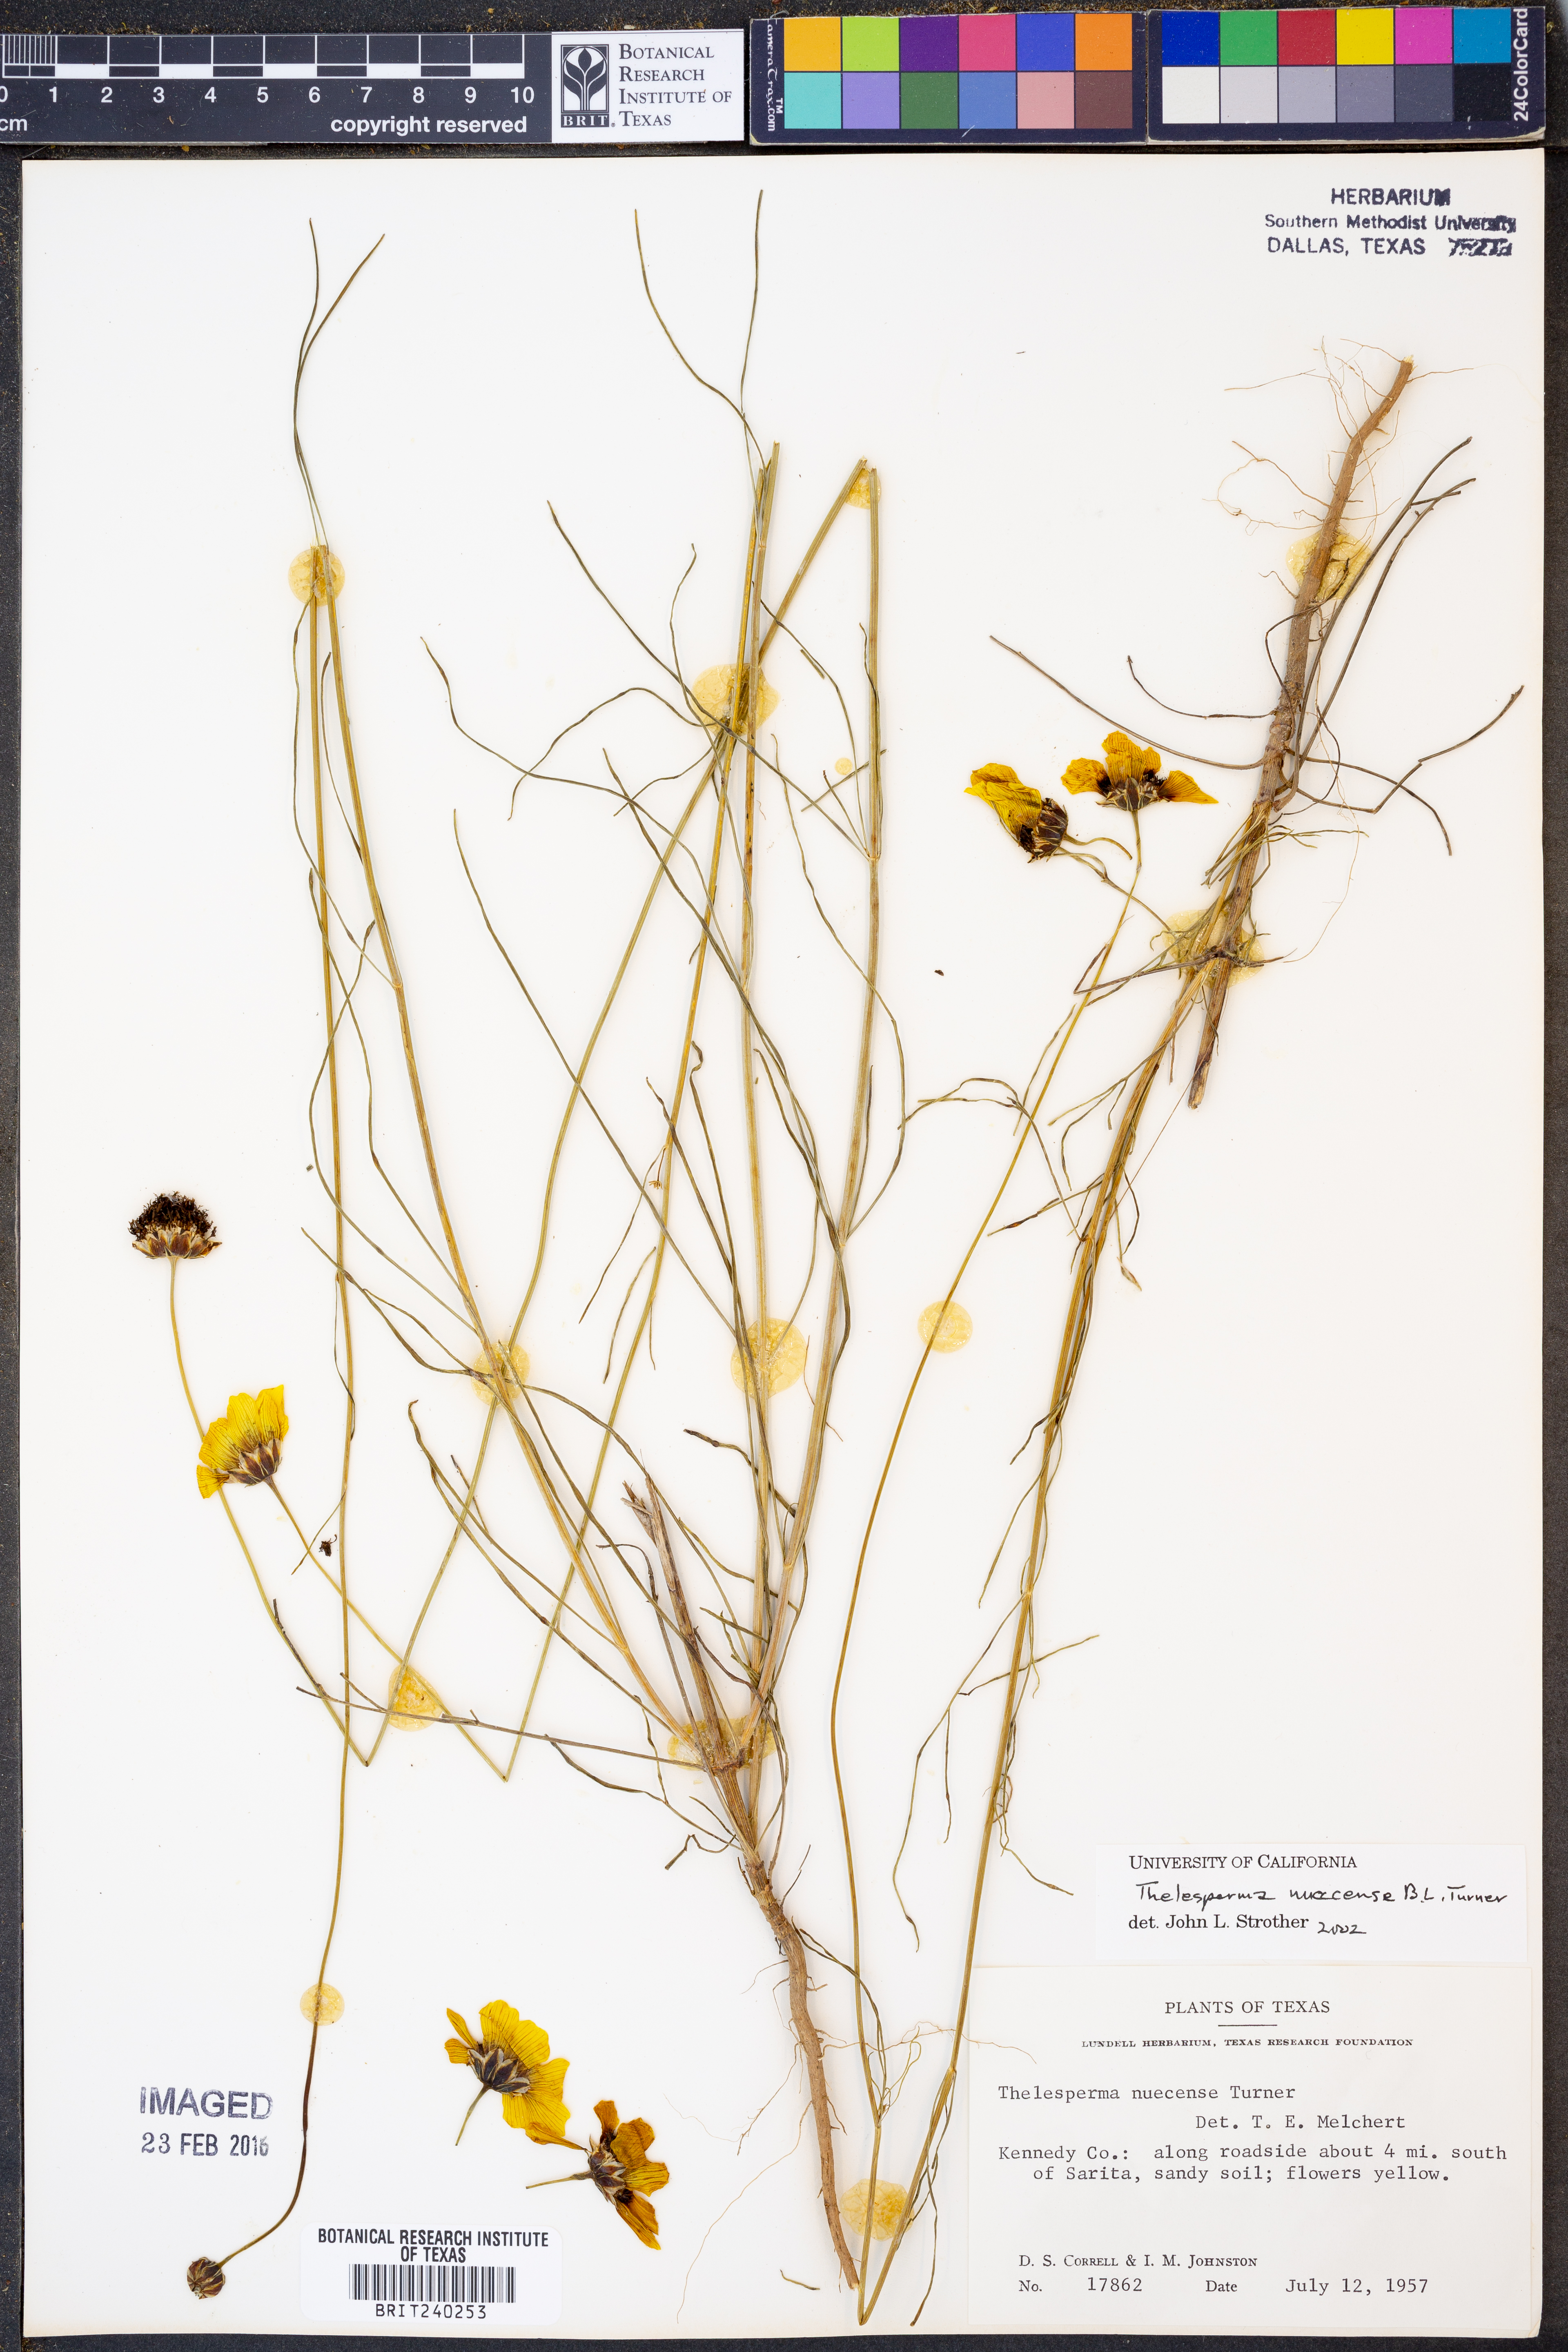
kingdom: Plantae
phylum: Tracheophyta
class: Magnoliopsida
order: Asterales
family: Asteraceae
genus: Thelesperma
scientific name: Thelesperma nuecense
